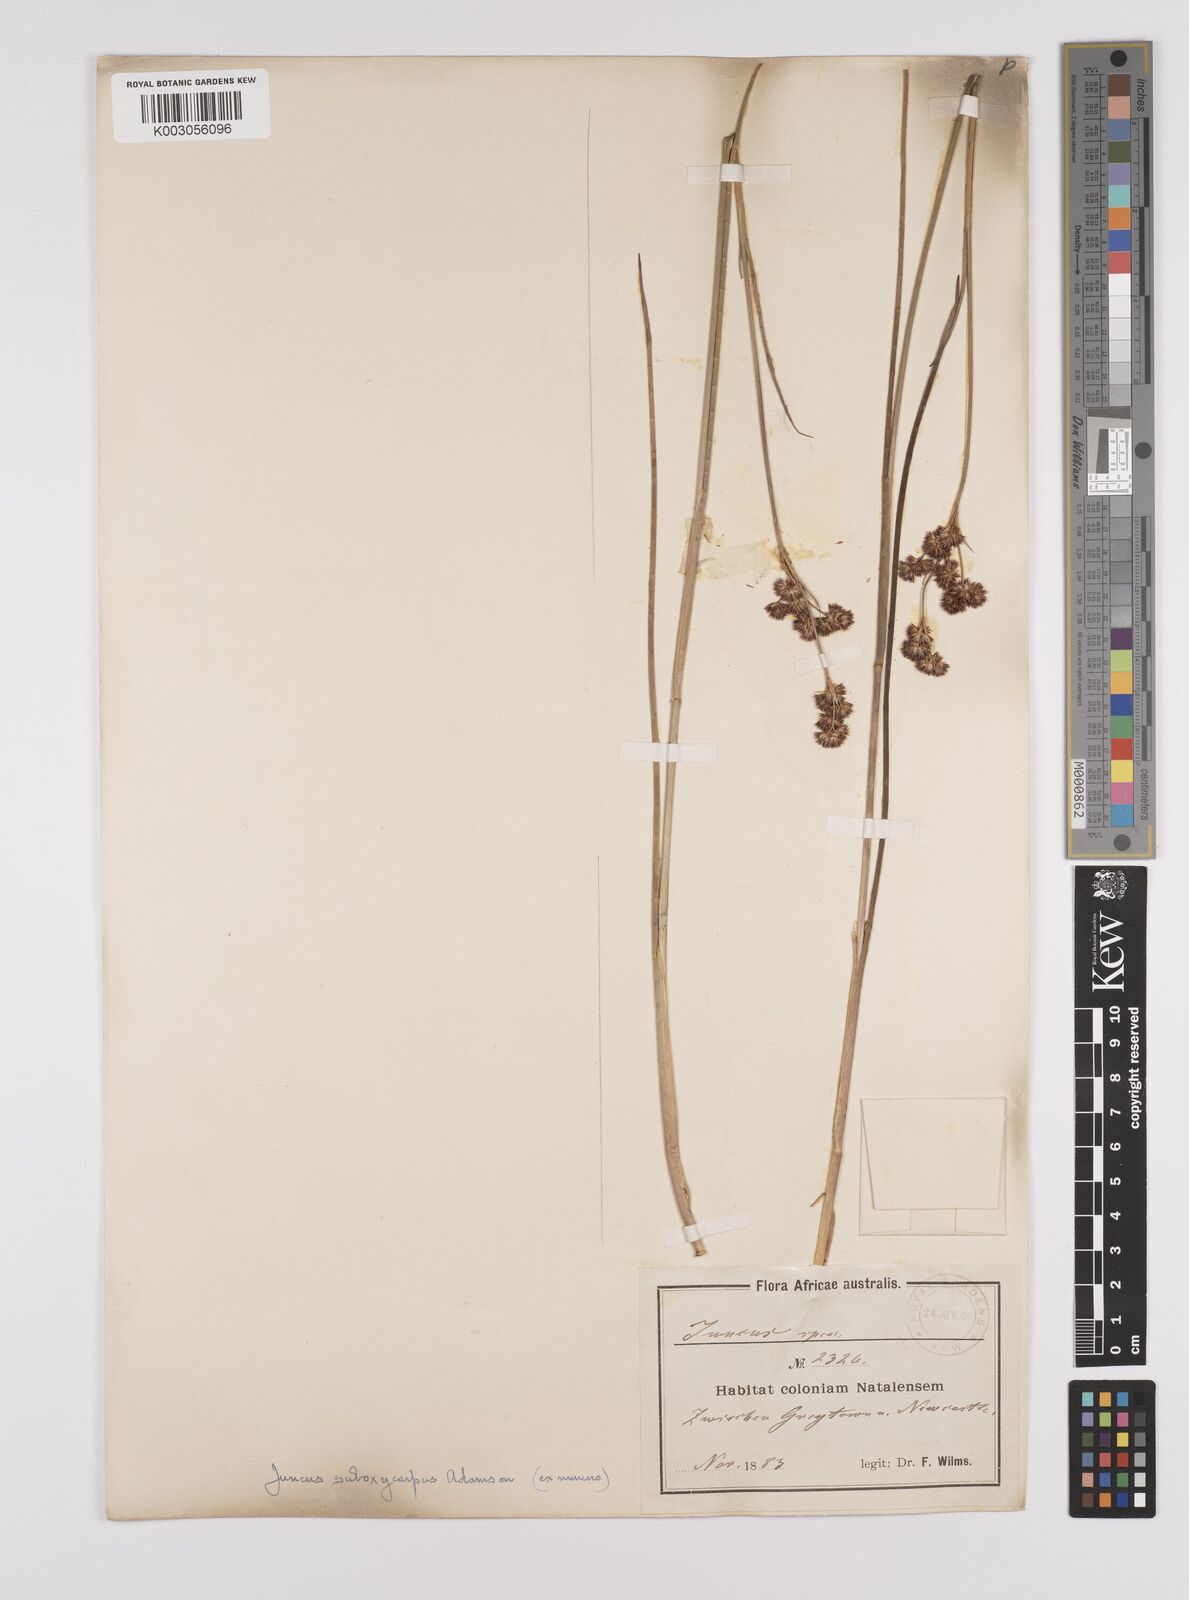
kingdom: Plantae
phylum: Tracheophyta
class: Liliopsida
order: Poales
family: Juncaceae
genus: Juncus
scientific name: Juncus dregeanus
